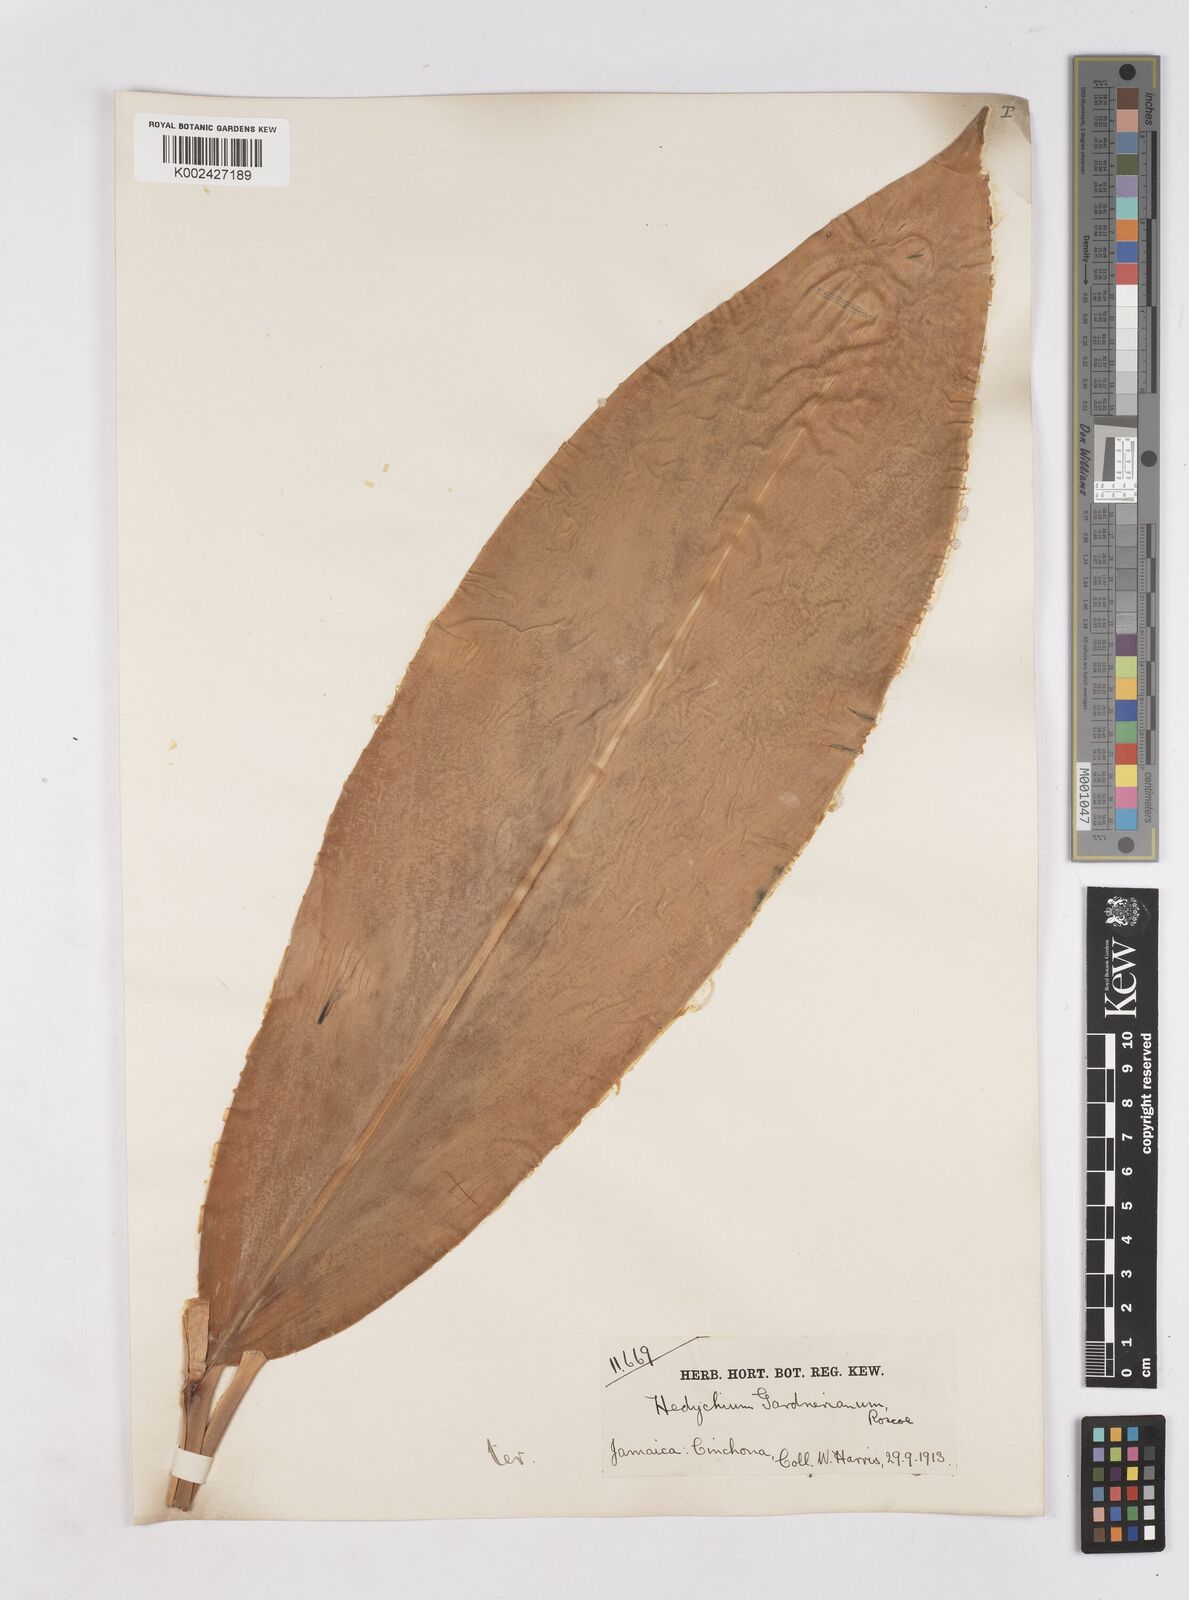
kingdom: Plantae
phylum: Tracheophyta
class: Liliopsida
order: Zingiberales
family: Zingiberaceae
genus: Hedychium
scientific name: Hedychium gardnerianum
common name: Himalayan ginger
